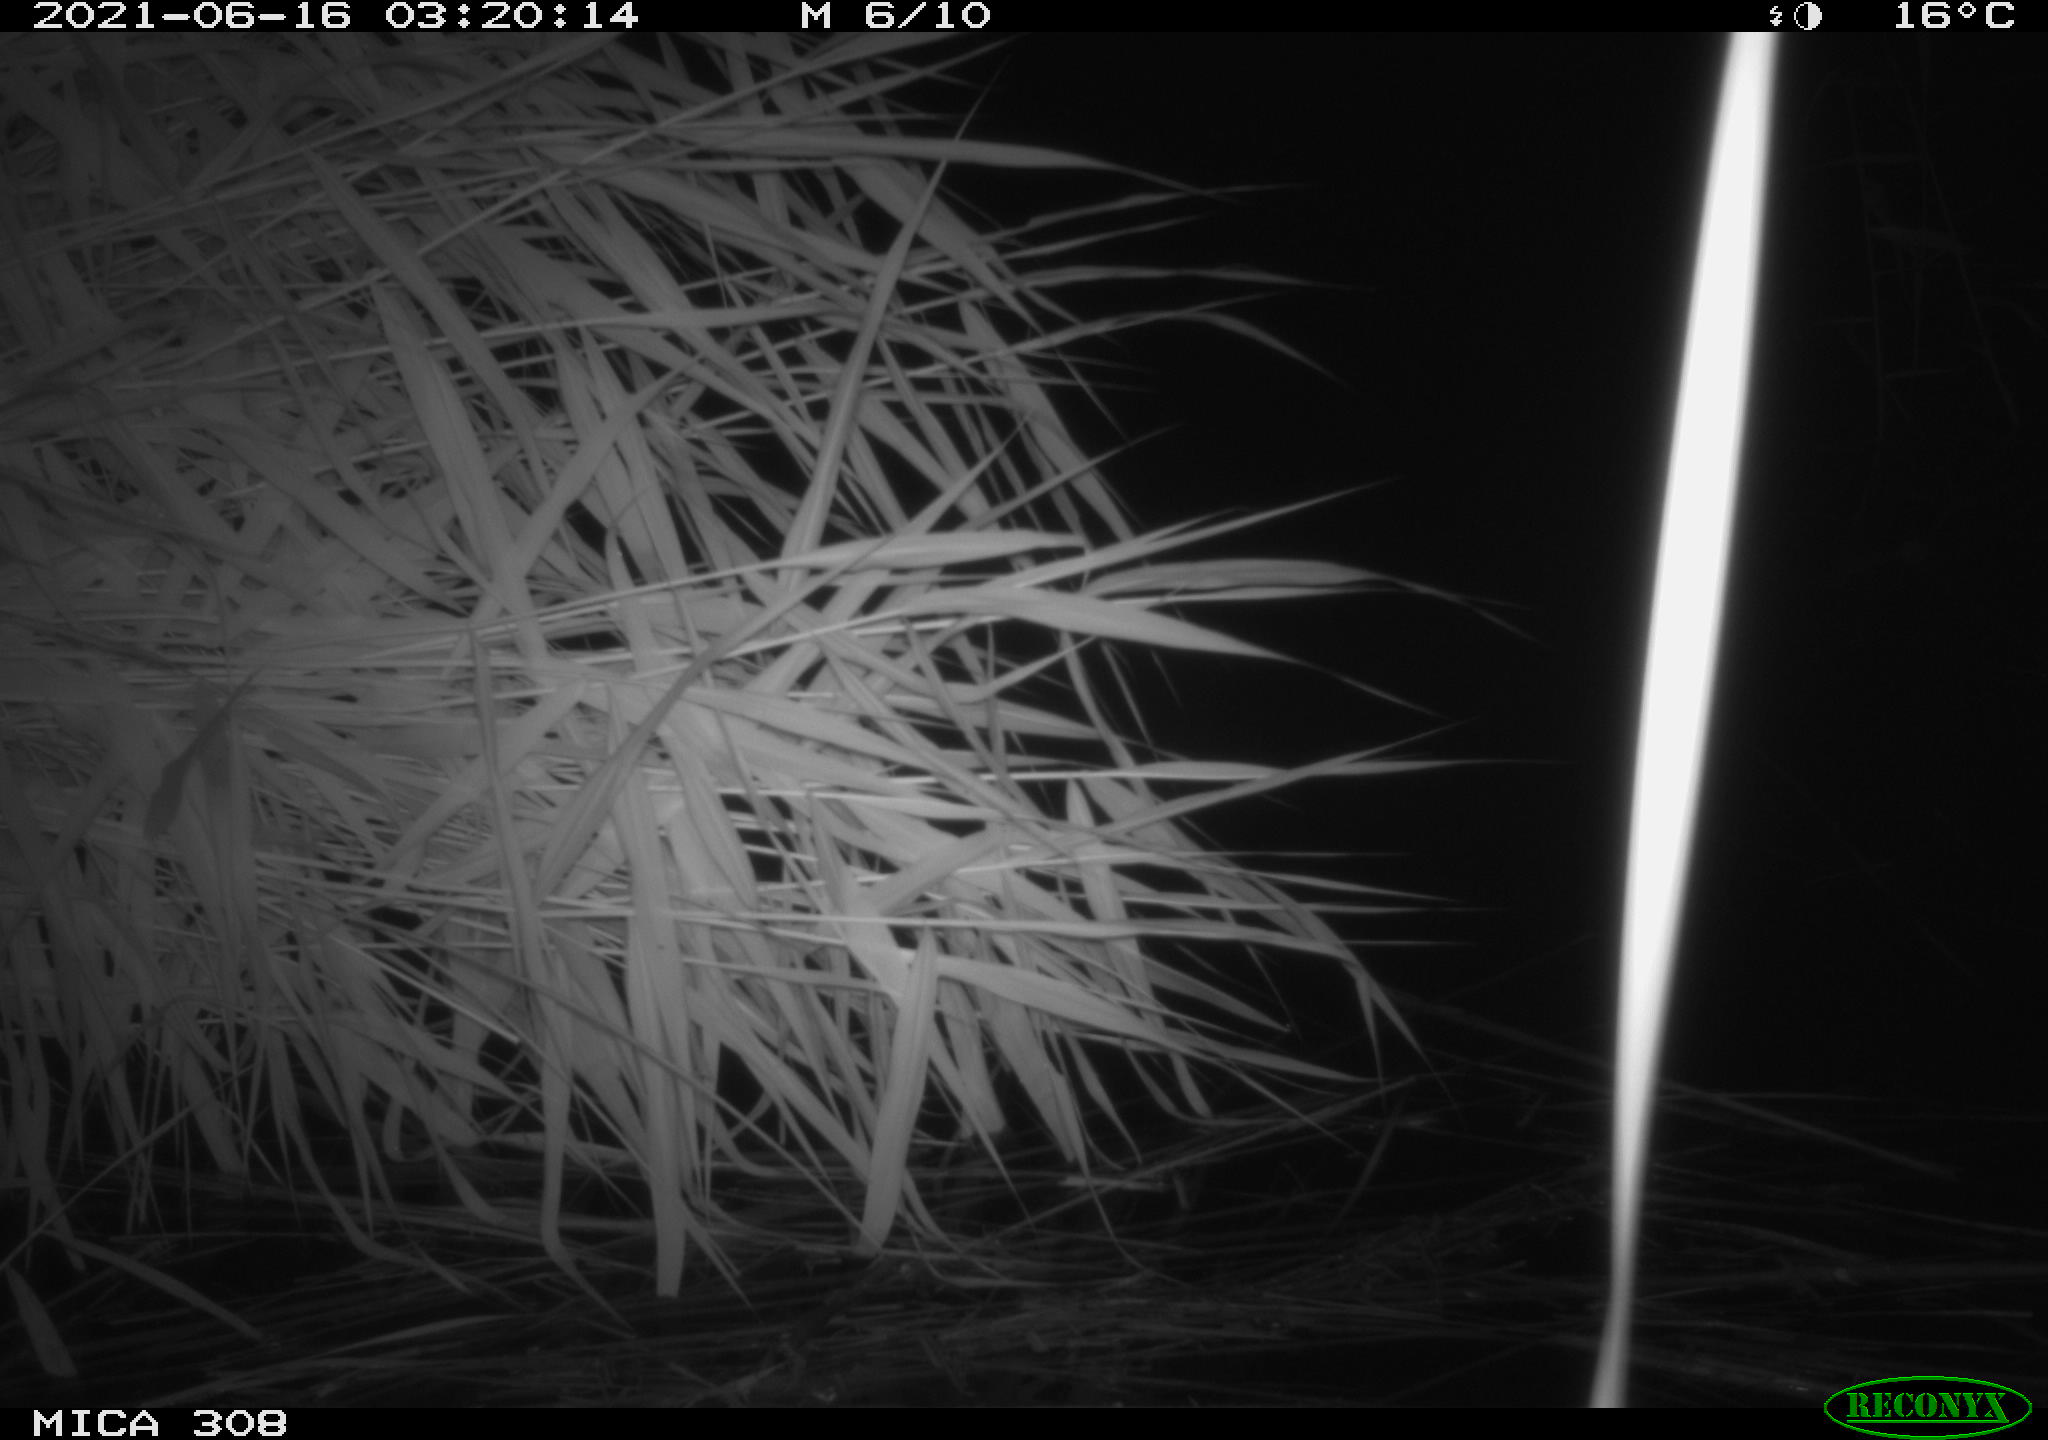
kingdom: Animalia
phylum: Chordata
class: Aves
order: Anseriformes
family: Anatidae
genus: Anas
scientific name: Anas platyrhynchos
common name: Mallard
